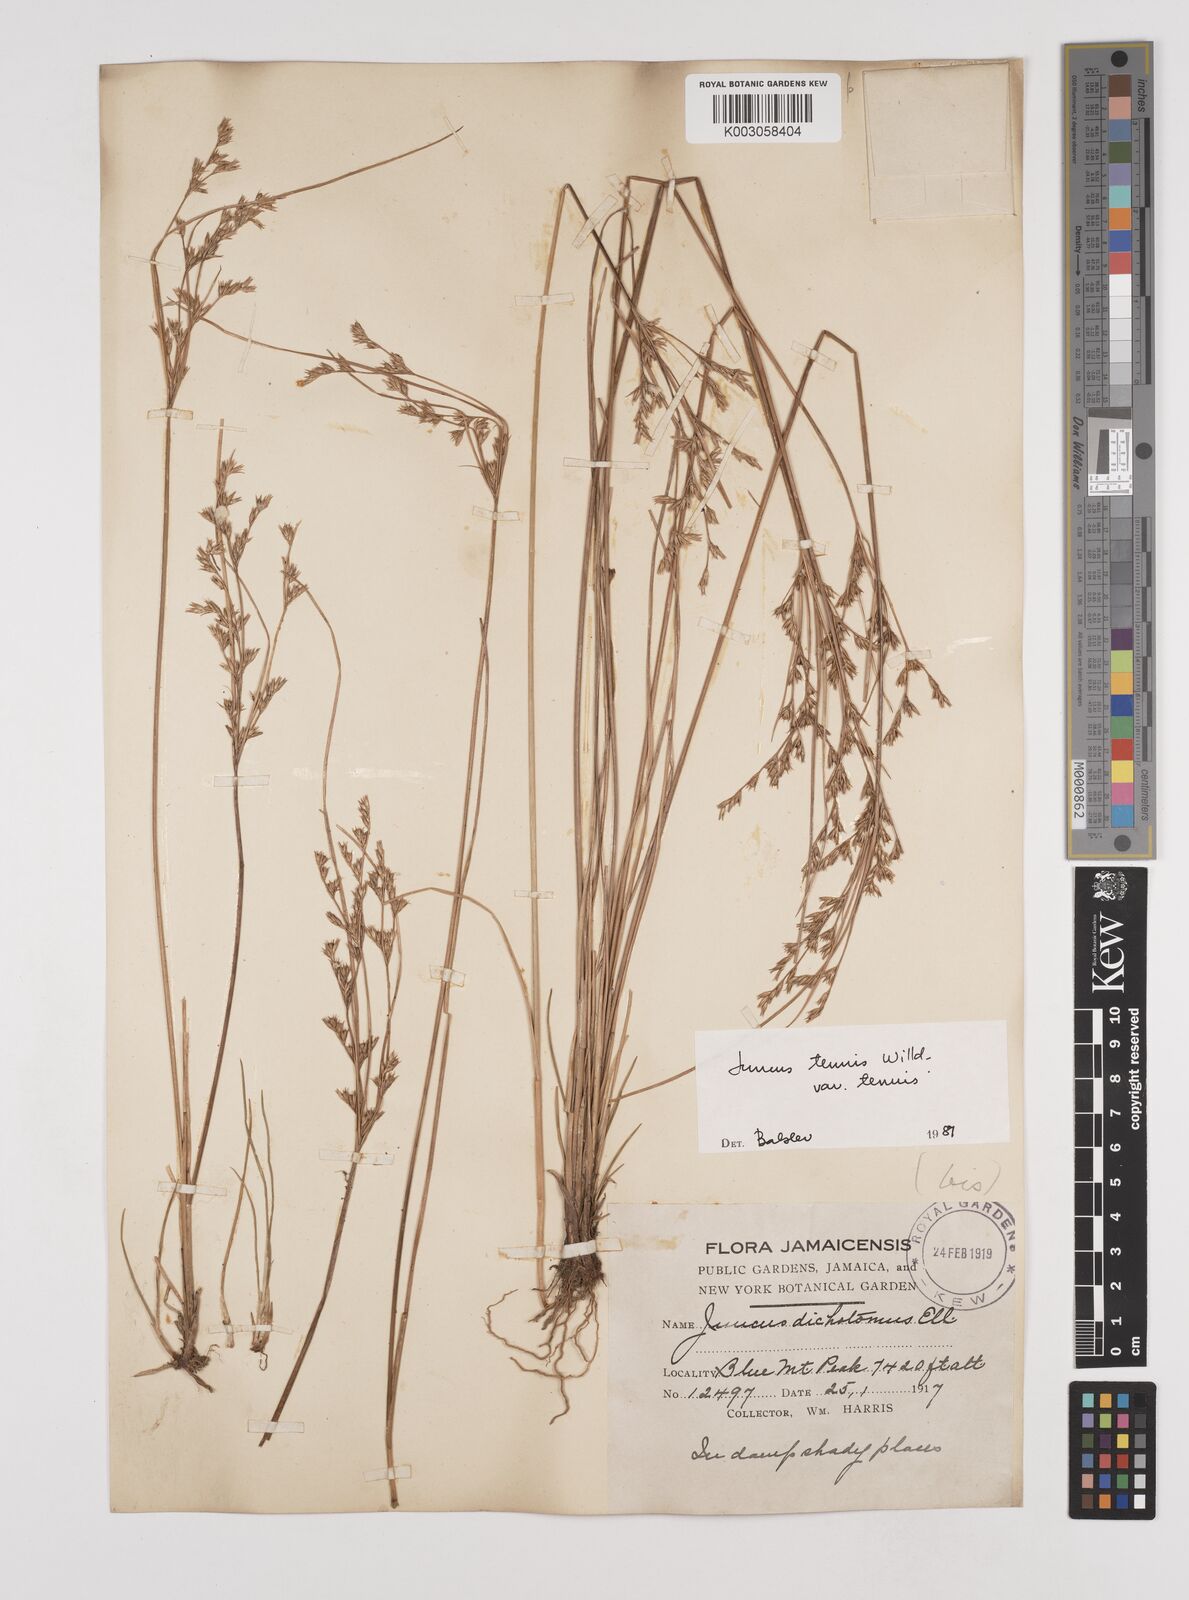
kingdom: Plantae
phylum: Tracheophyta
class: Liliopsida
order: Poales
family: Juncaceae
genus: Juncus
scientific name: Juncus tenuis
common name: Slender rush
